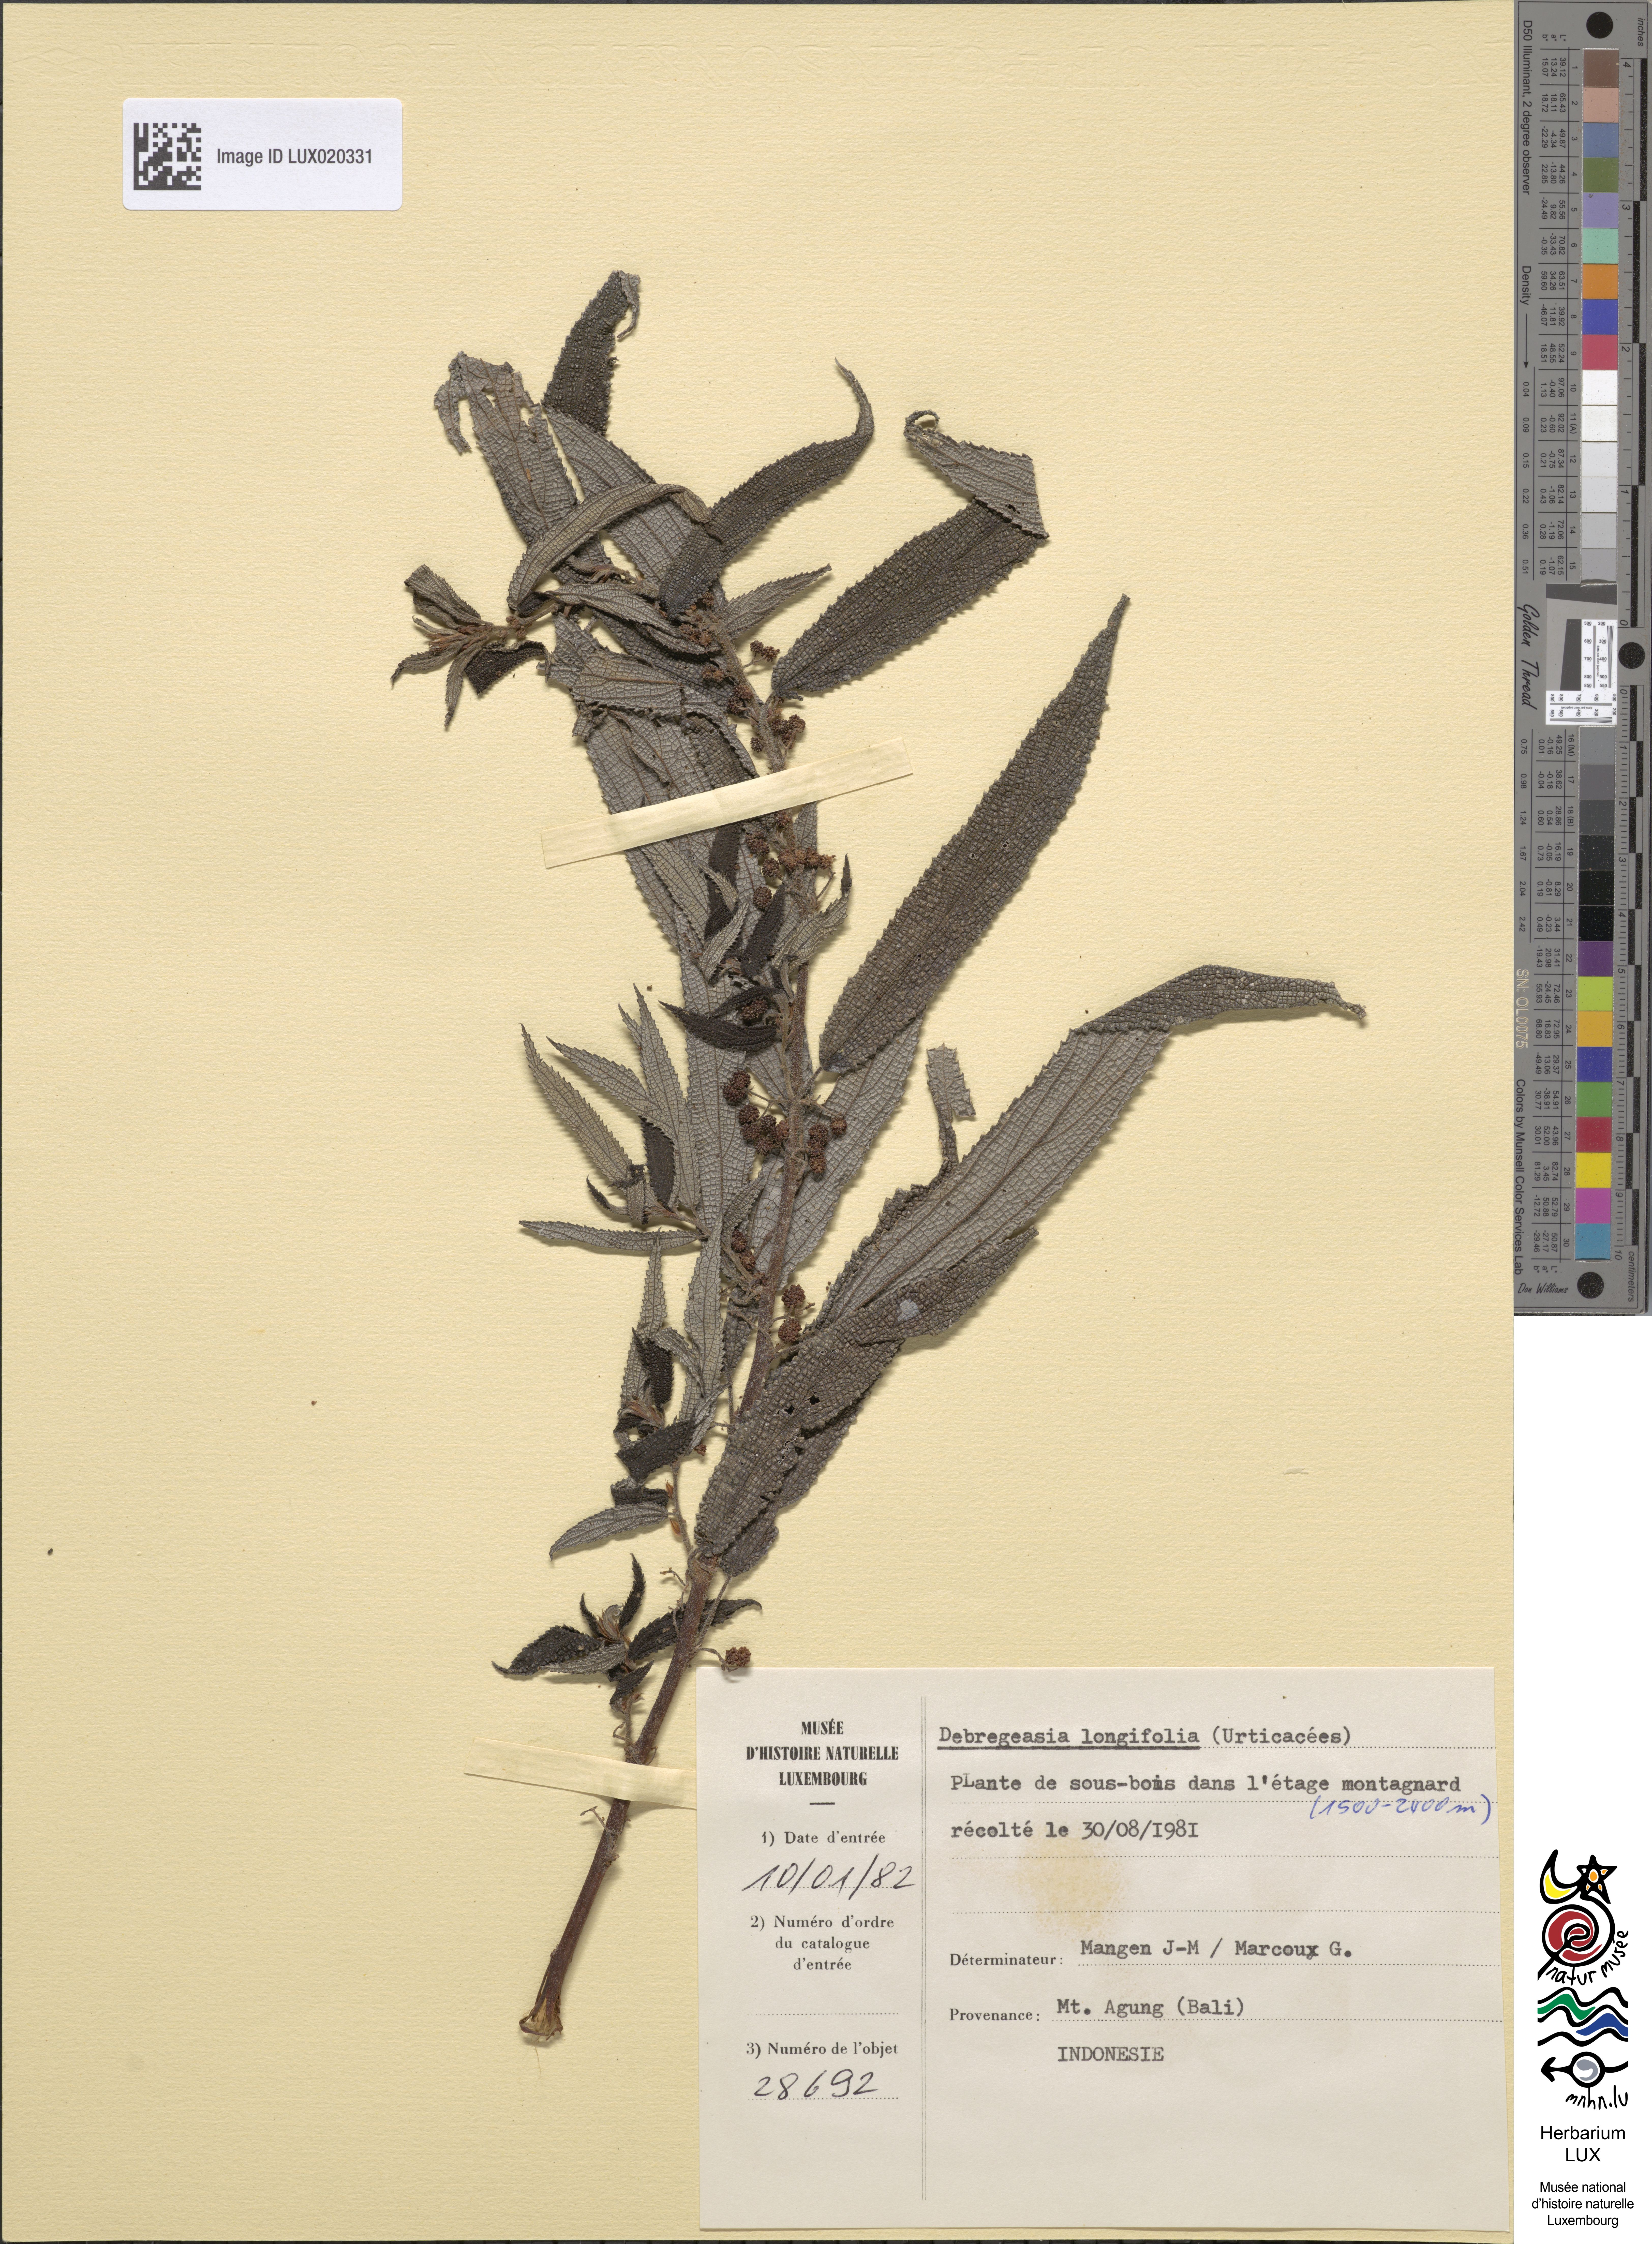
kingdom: Plantae
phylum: Tracheophyta
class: Magnoliopsida
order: Rosales
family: Urticaceae
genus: Debregeasia
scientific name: Debregeasia longifolia
